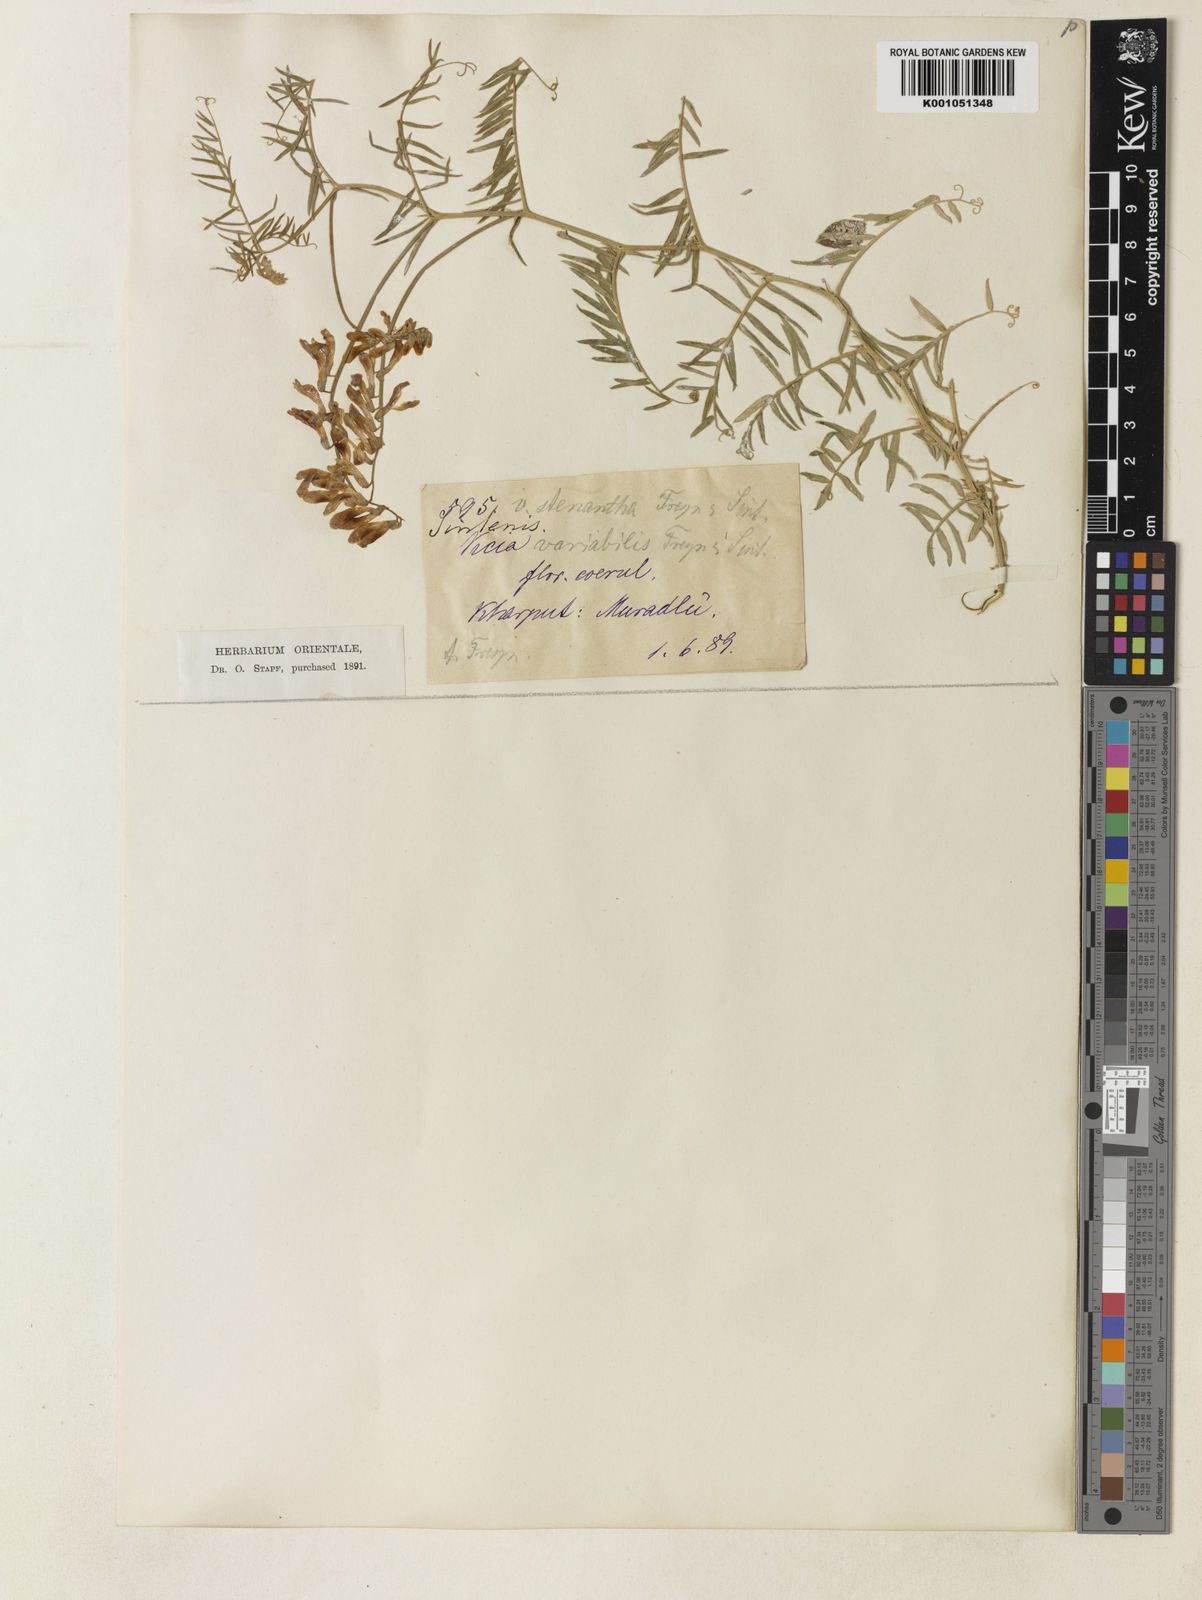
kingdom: Plantae
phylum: Tracheophyta
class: Magnoliopsida
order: Fabales
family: Fabaceae
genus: Vicia
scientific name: Vicia tenuifolia
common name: Fine-leaved vetch
